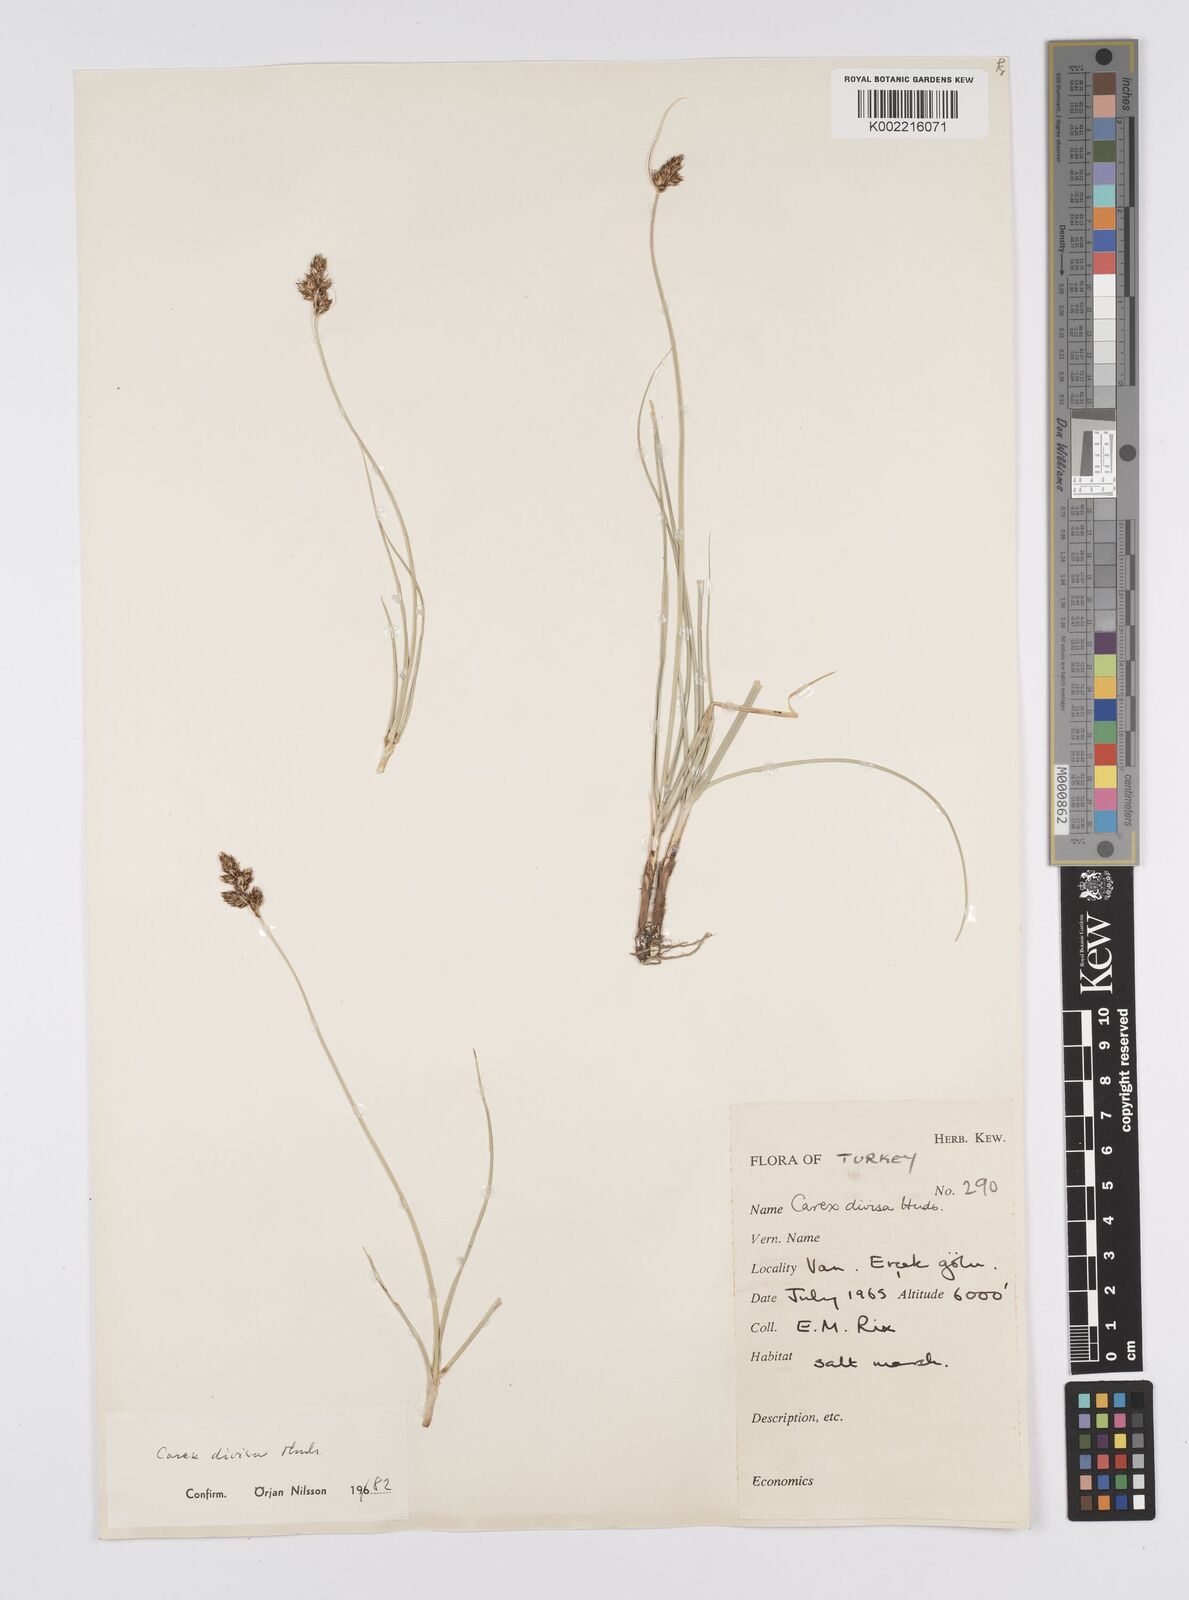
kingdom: Plantae
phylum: Tracheophyta
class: Liliopsida
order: Poales
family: Cyperaceae
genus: Carex
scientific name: Carex divisa
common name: Divided sedge
